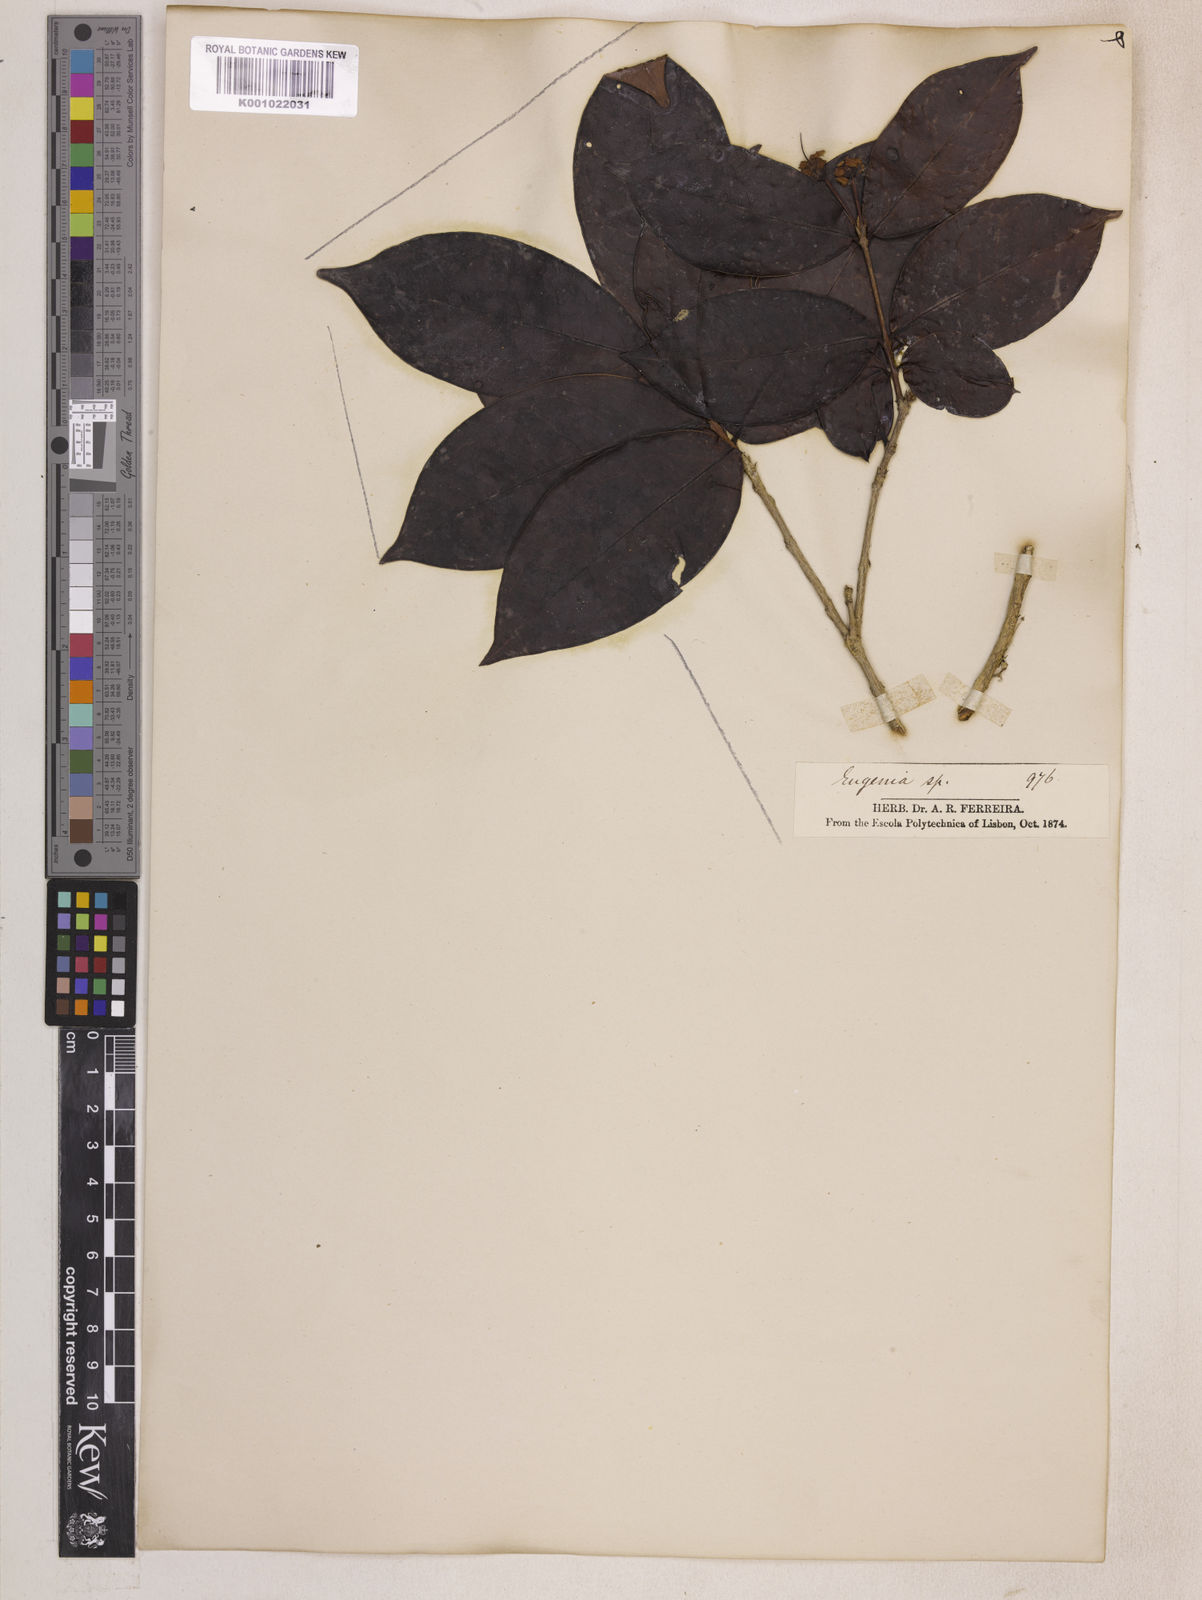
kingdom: Plantae
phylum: Tracheophyta
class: Magnoliopsida
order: Myrtales
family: Myrtaceae
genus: Eugenia
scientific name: Eugenia
